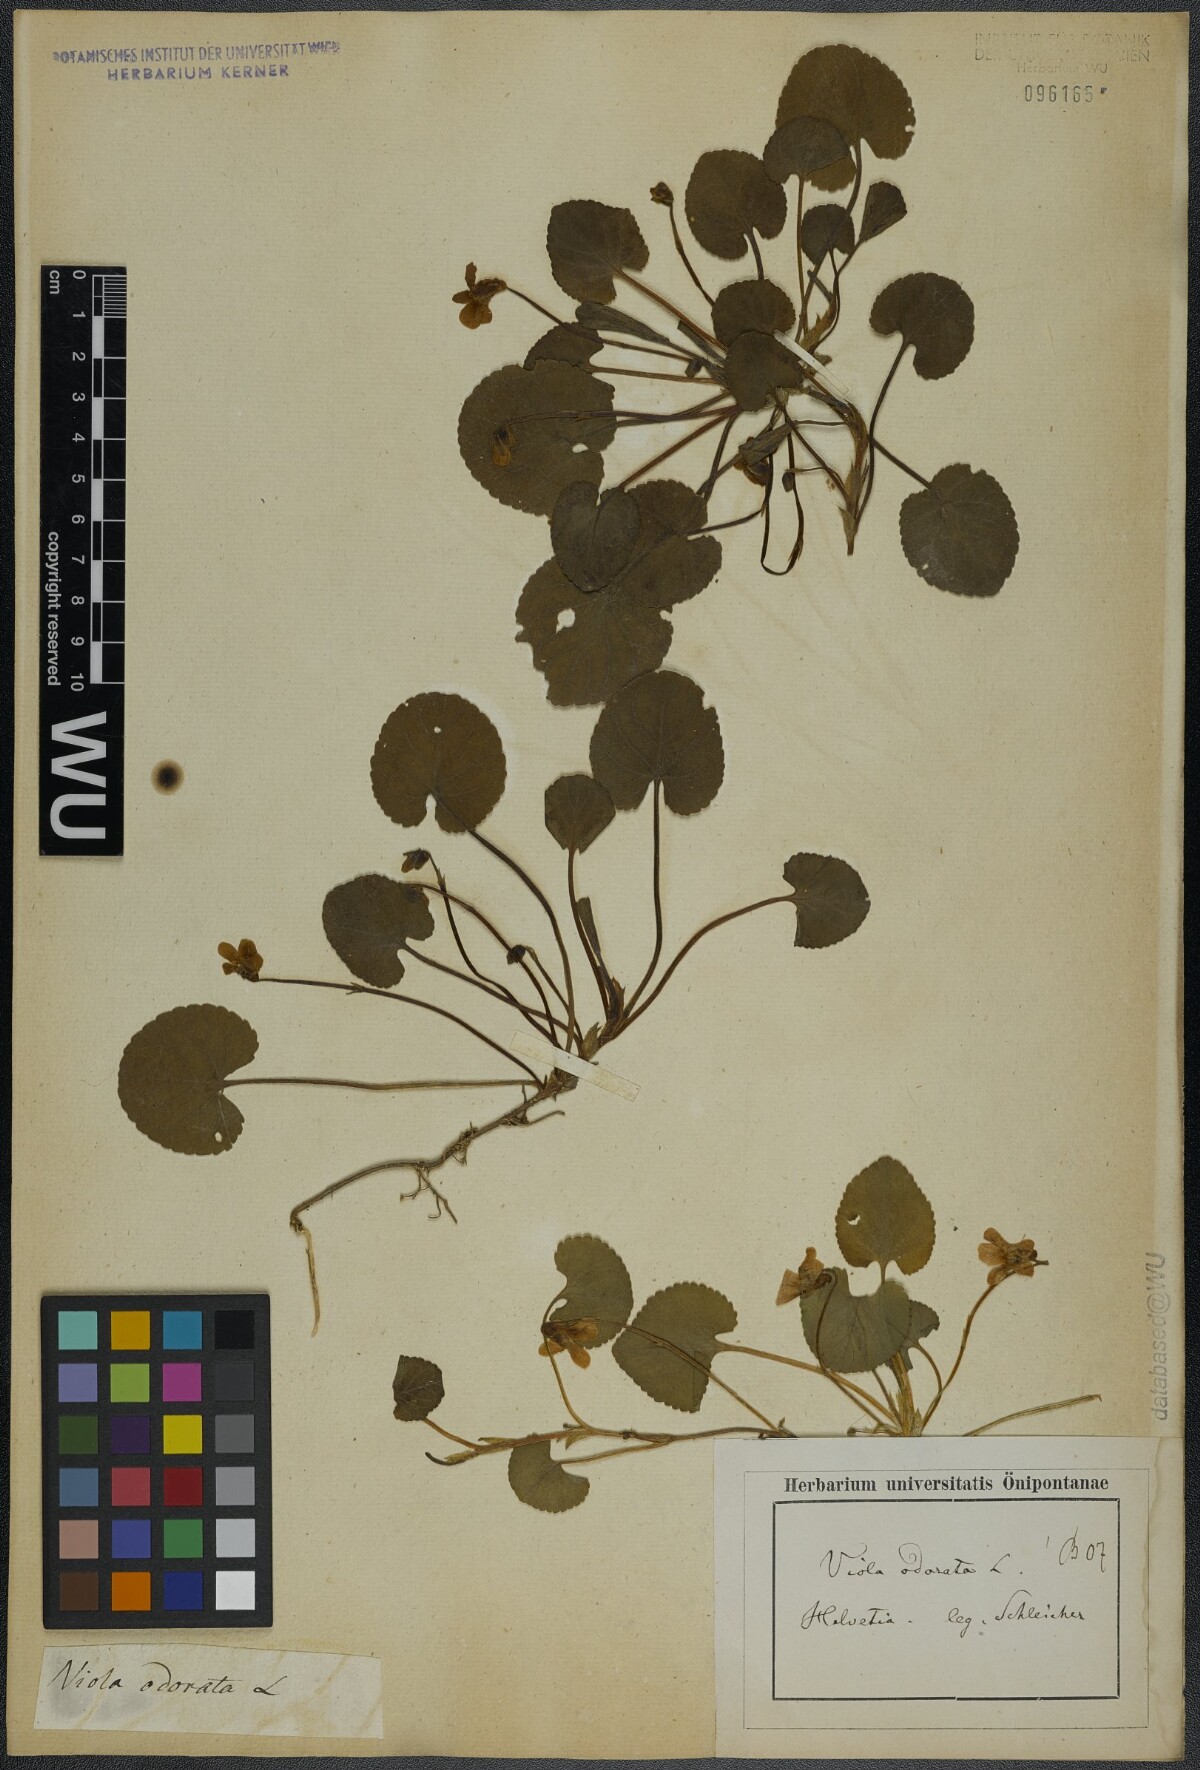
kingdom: Plantae
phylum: Tracheophyta
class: Magnoliopsida
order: Malpighiales
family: Violaceae
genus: Viola
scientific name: Viola odorata
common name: Sweet violet
